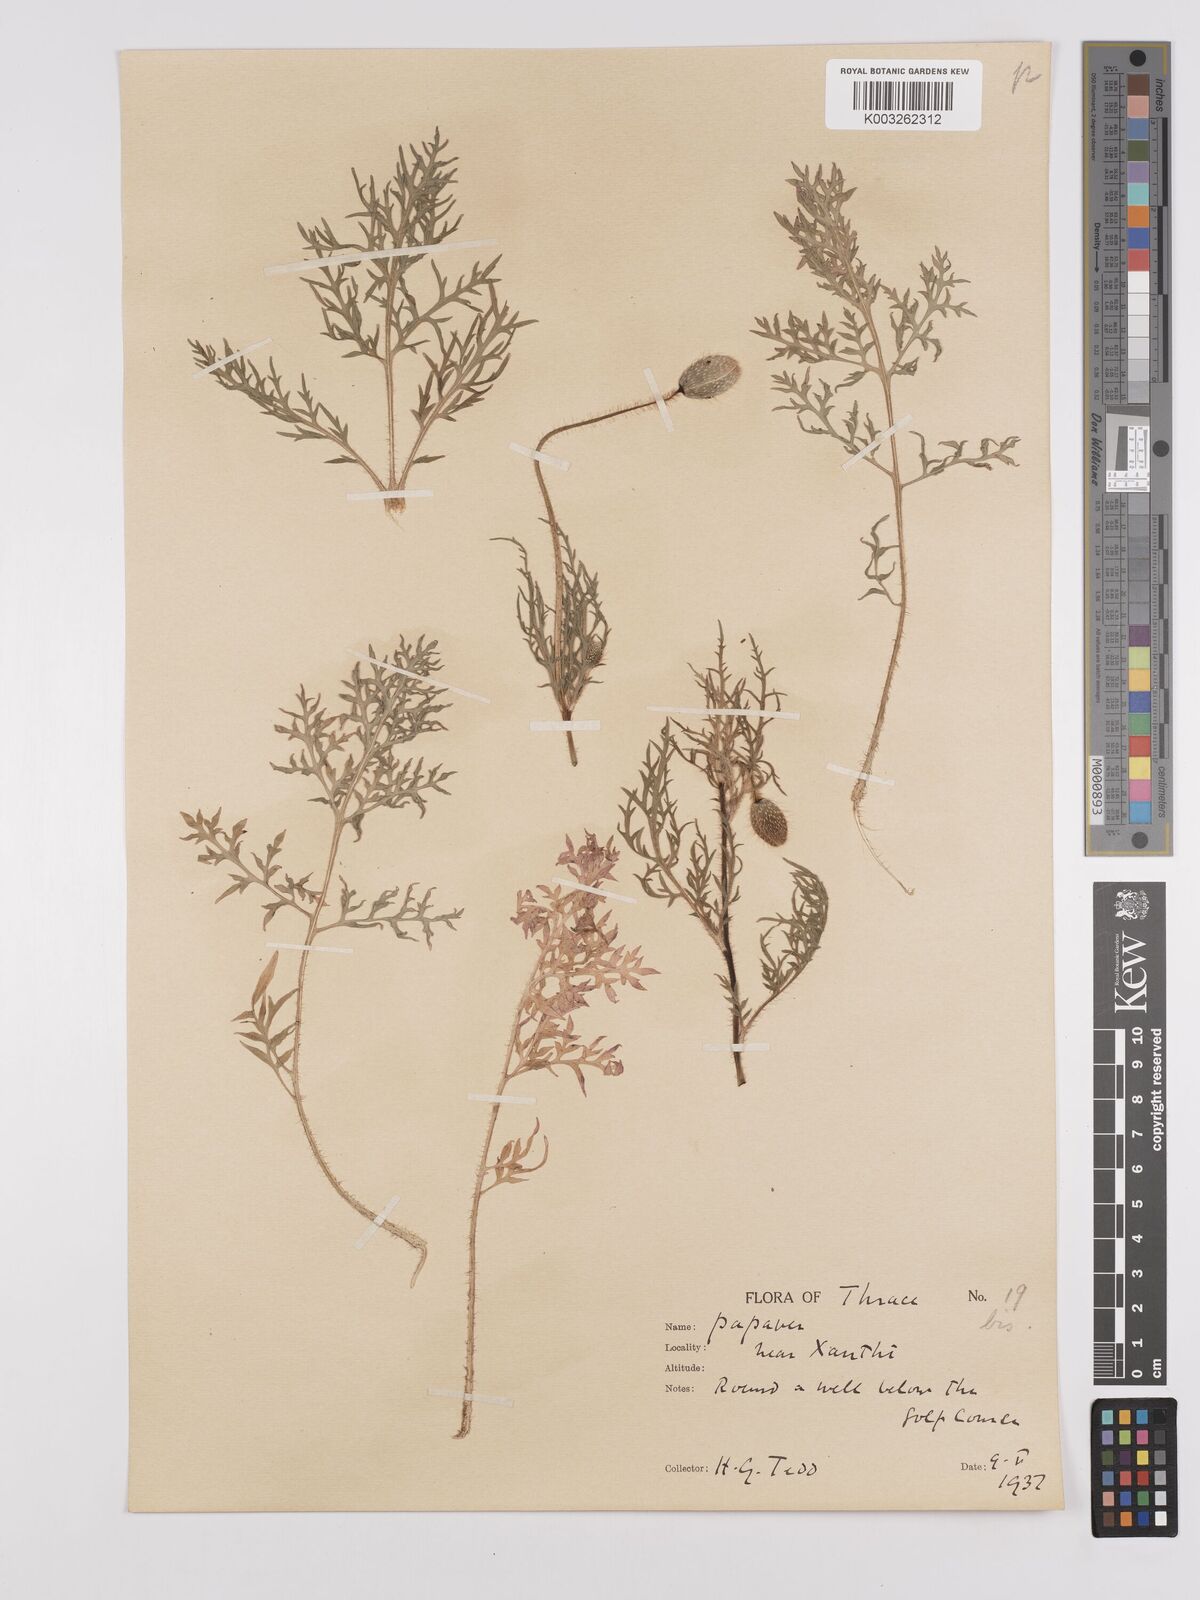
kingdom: Plantae
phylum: Tracheophyta
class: Magnoliopsida
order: Ranunculales
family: Papaveraceae
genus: Papaver
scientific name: Papaver rhoeas
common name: Corn poppy
